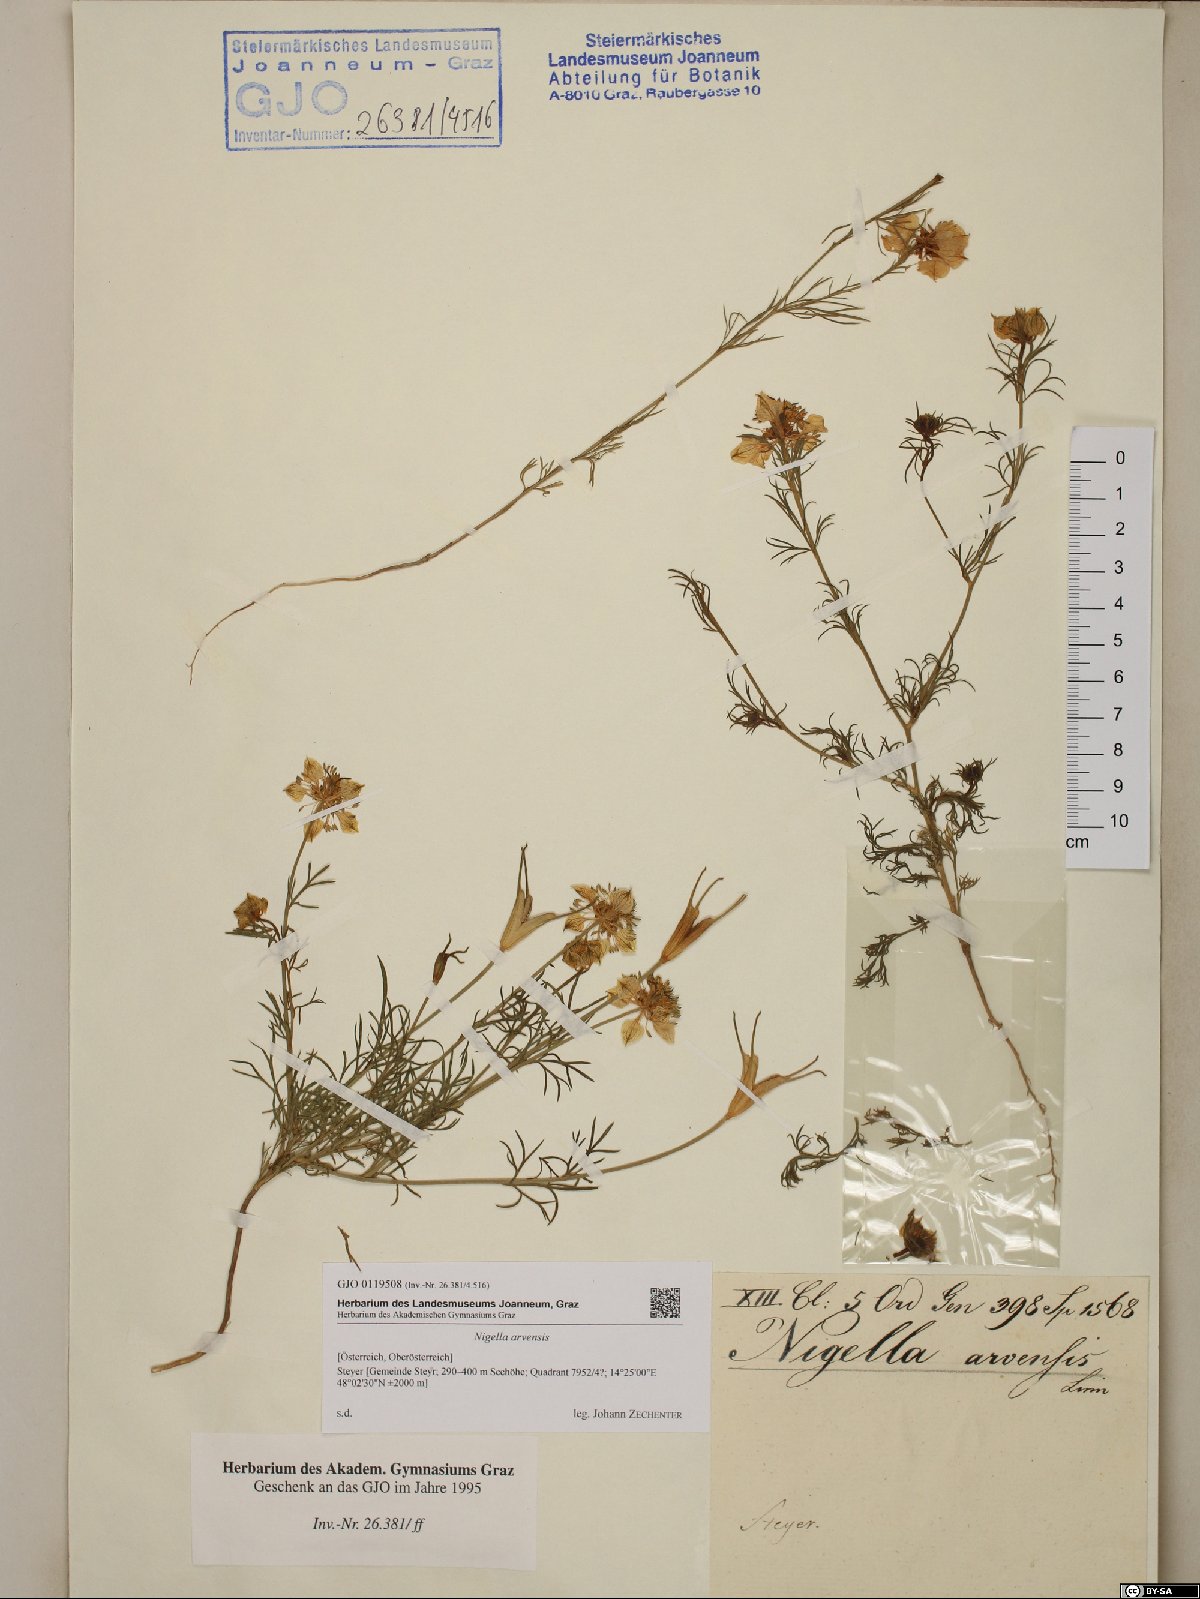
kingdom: Plantae
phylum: Tracheophyta
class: Magnoliopsida
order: Ranunculales
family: Ranunculaceae
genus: Nigella
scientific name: Nigella arvensis
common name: Wild fennel-flower
